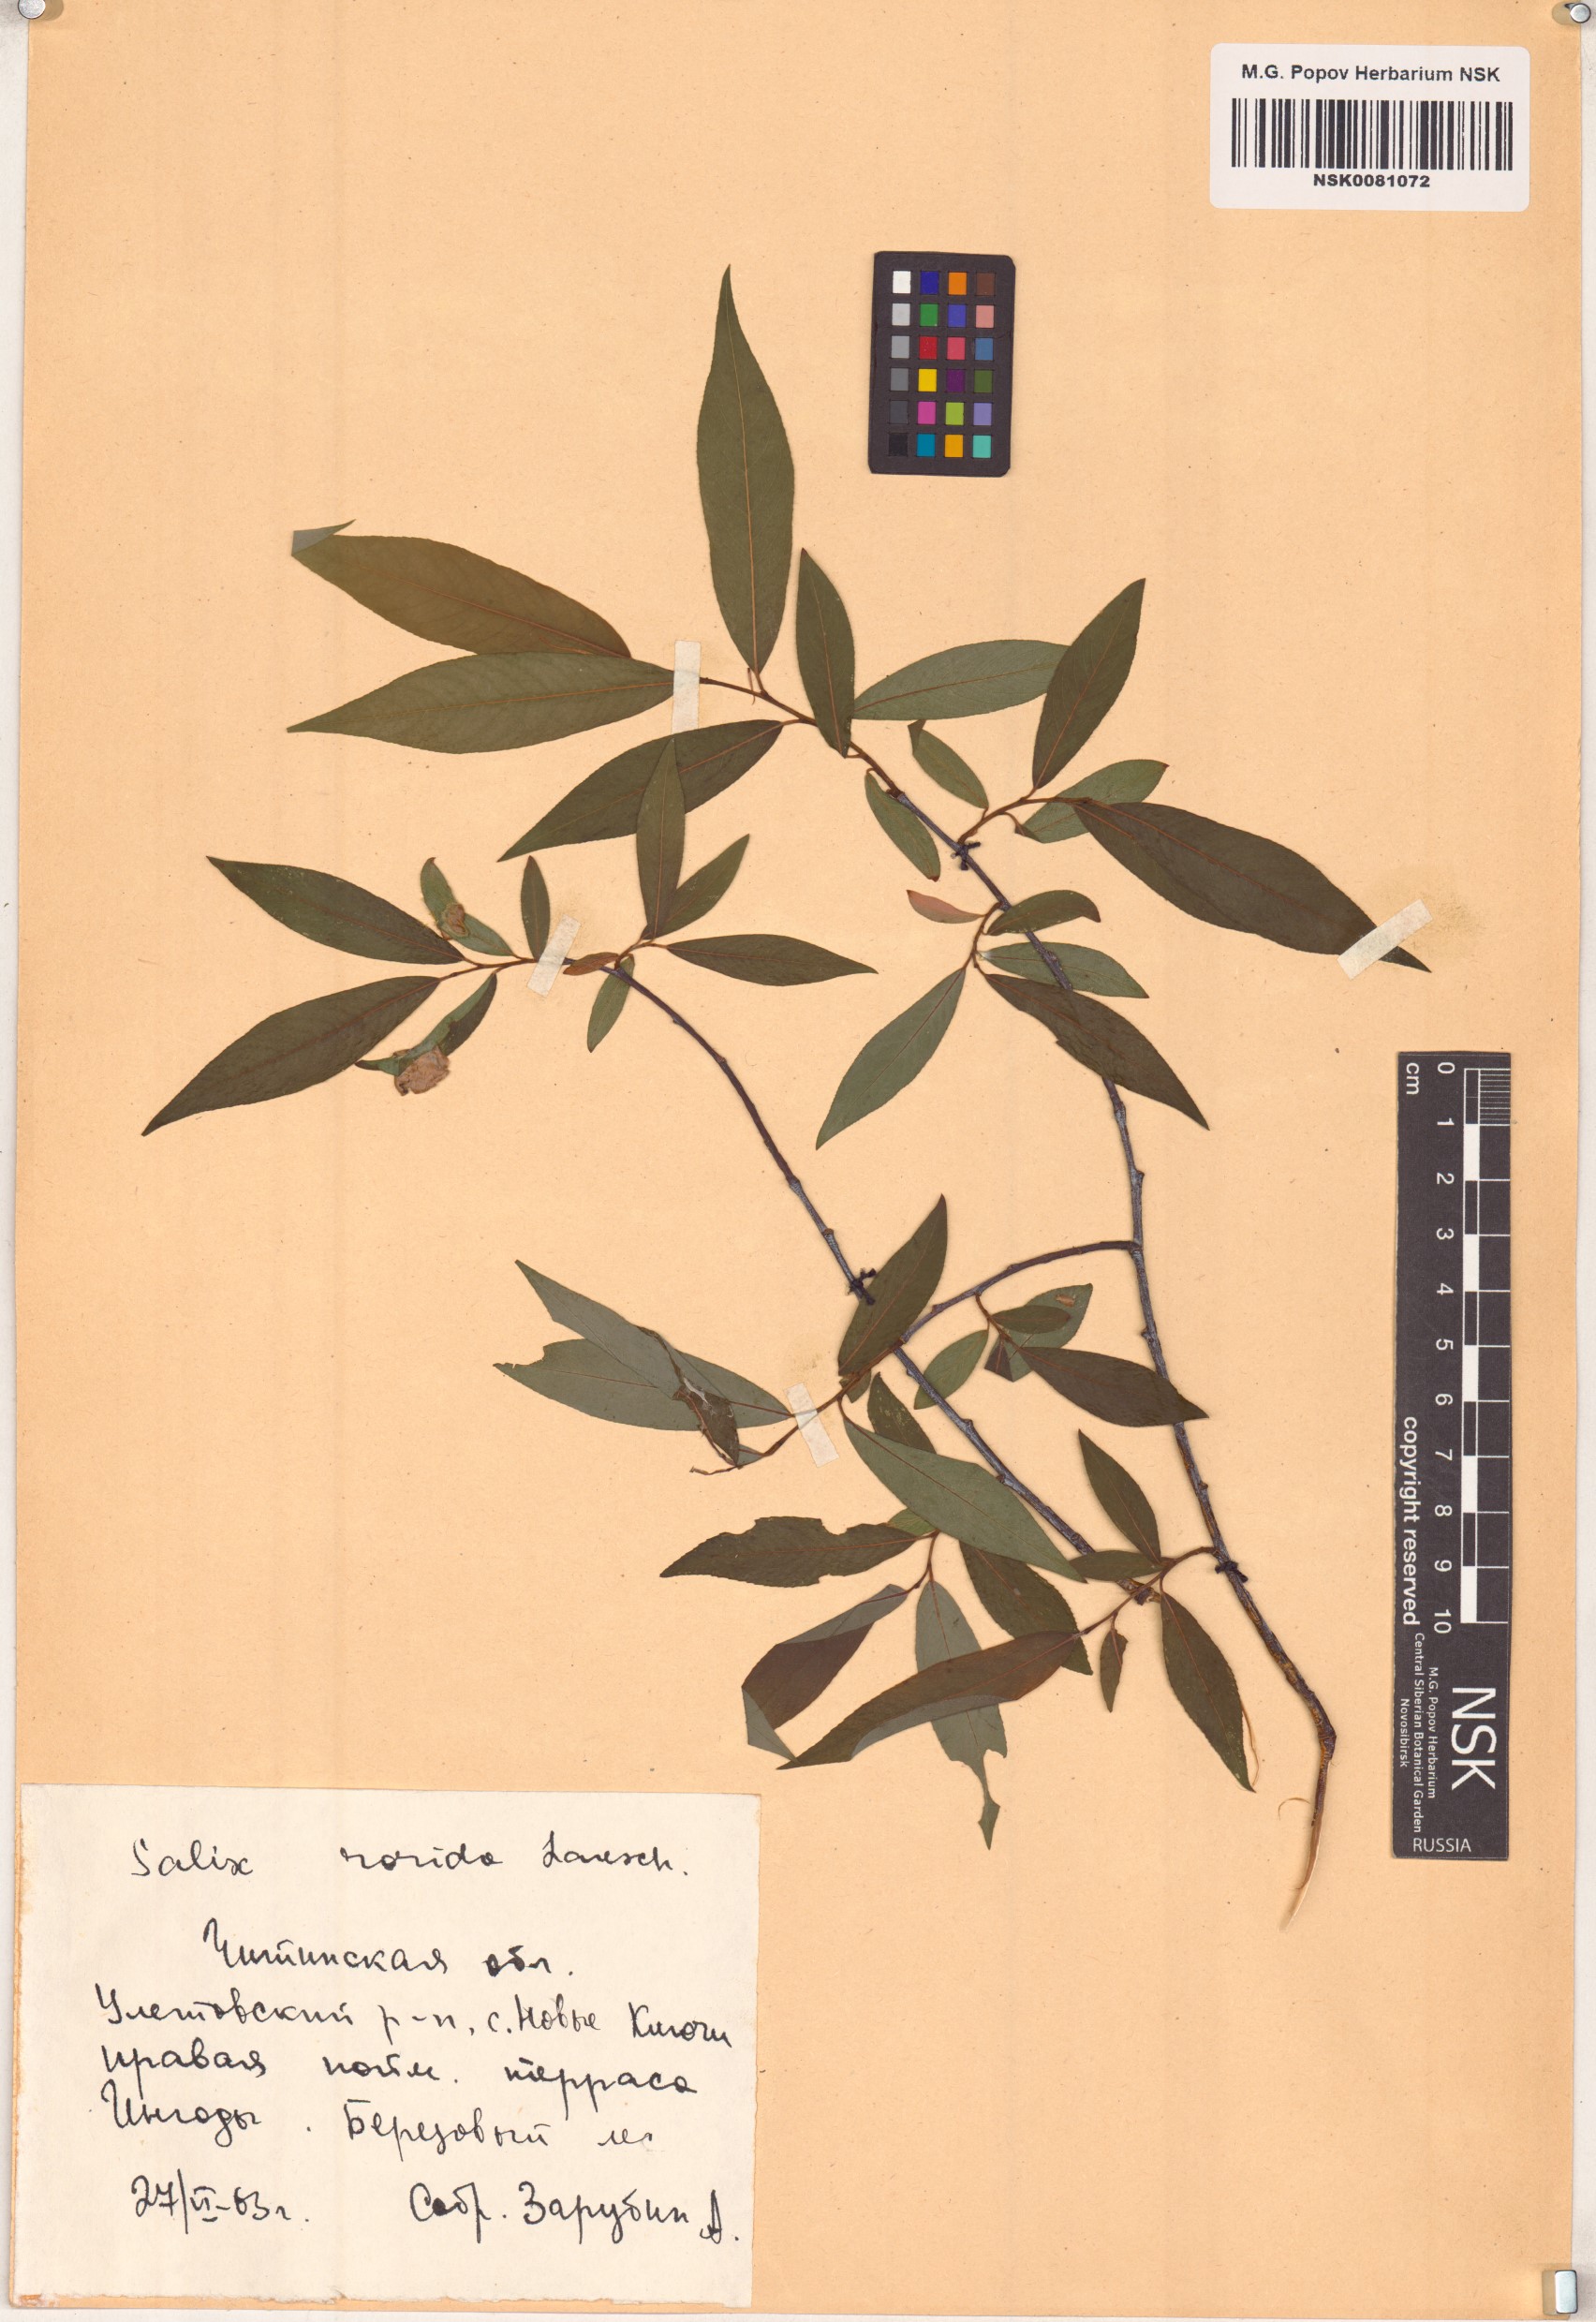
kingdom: Plantae
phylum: Tracheophyta
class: Magnoliopsida
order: Malpighiales
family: Salicaceae
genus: Salix
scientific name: Salix rorida
